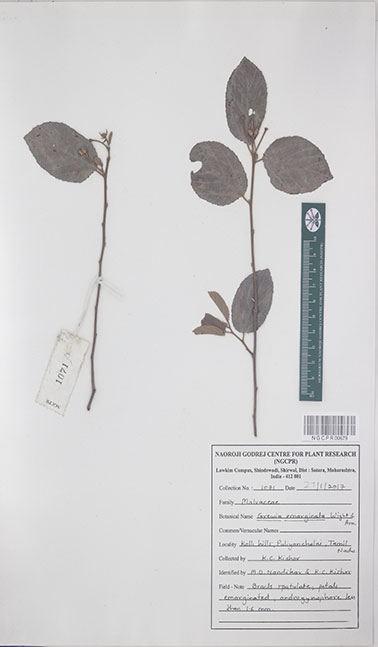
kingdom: Plantae
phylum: Tracheophyta
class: Magnoliopsida
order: Malvales
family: Malvaceae
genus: Grewia
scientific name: Grewia oppositifolia
